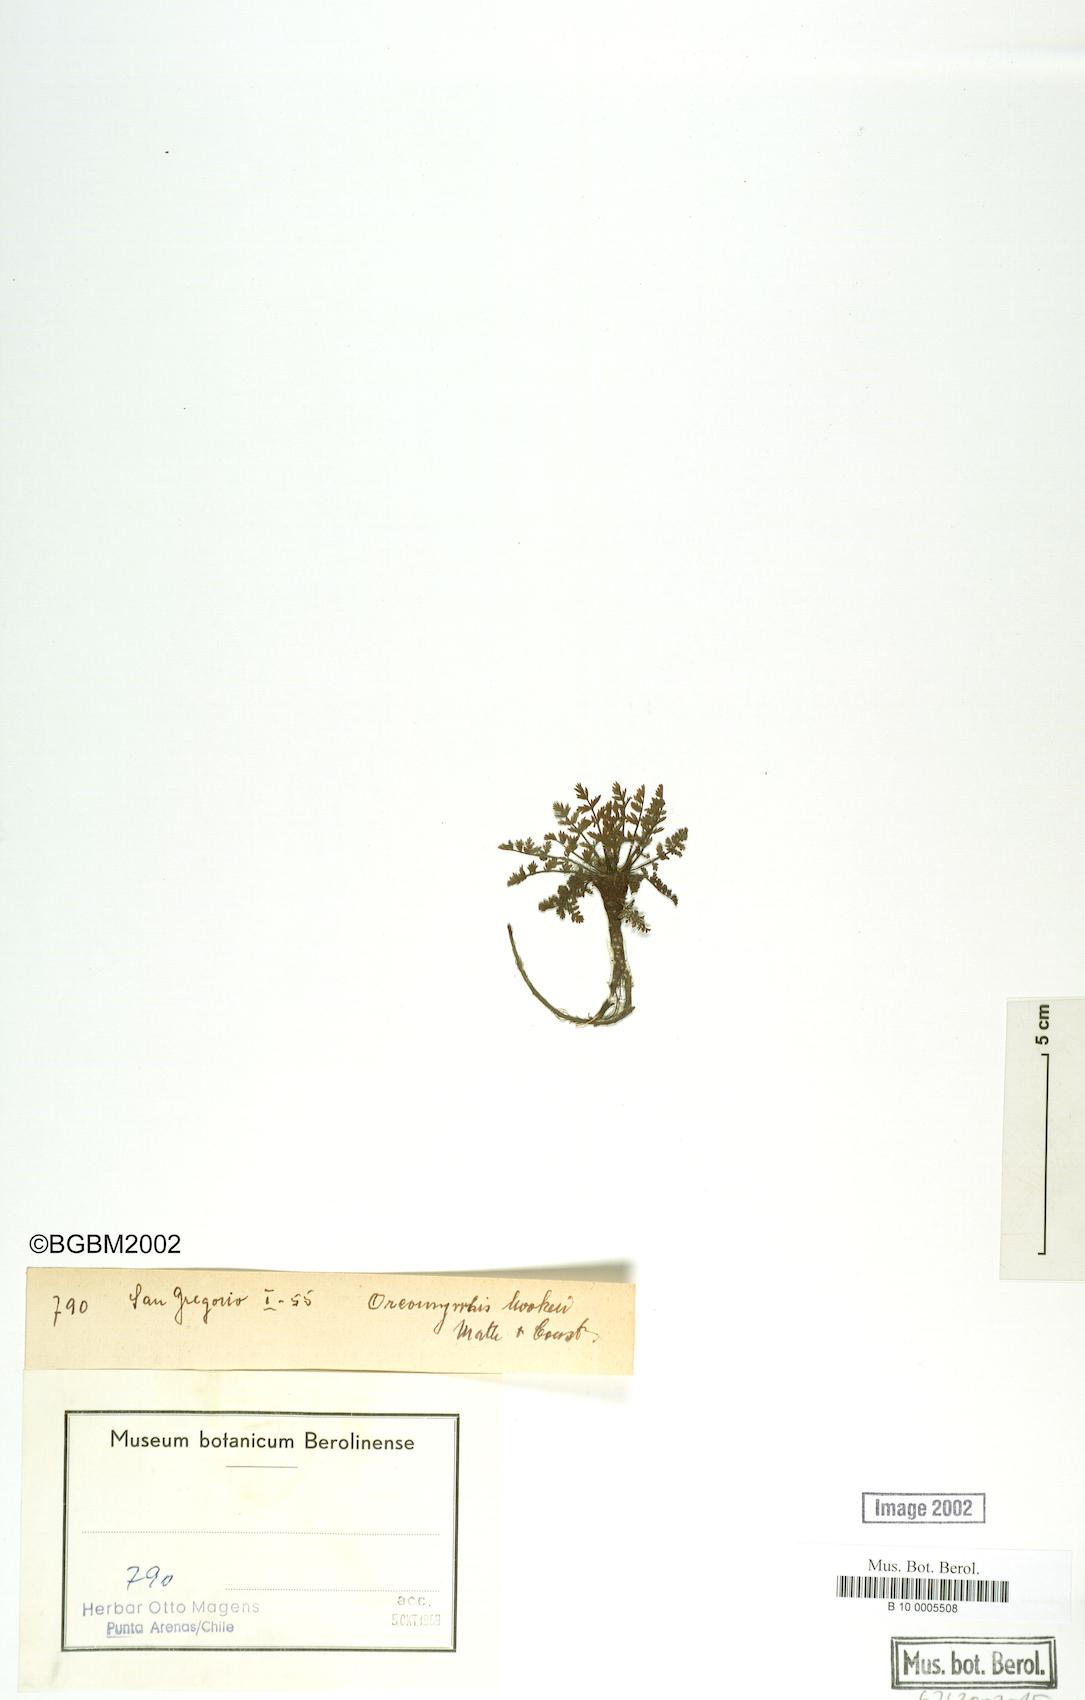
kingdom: Plantae
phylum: Tracheophyta
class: Magnoliopsida
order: Apiales
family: Apiaceae
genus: Chaerophyllum
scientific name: Chaerophyllum daucoides
